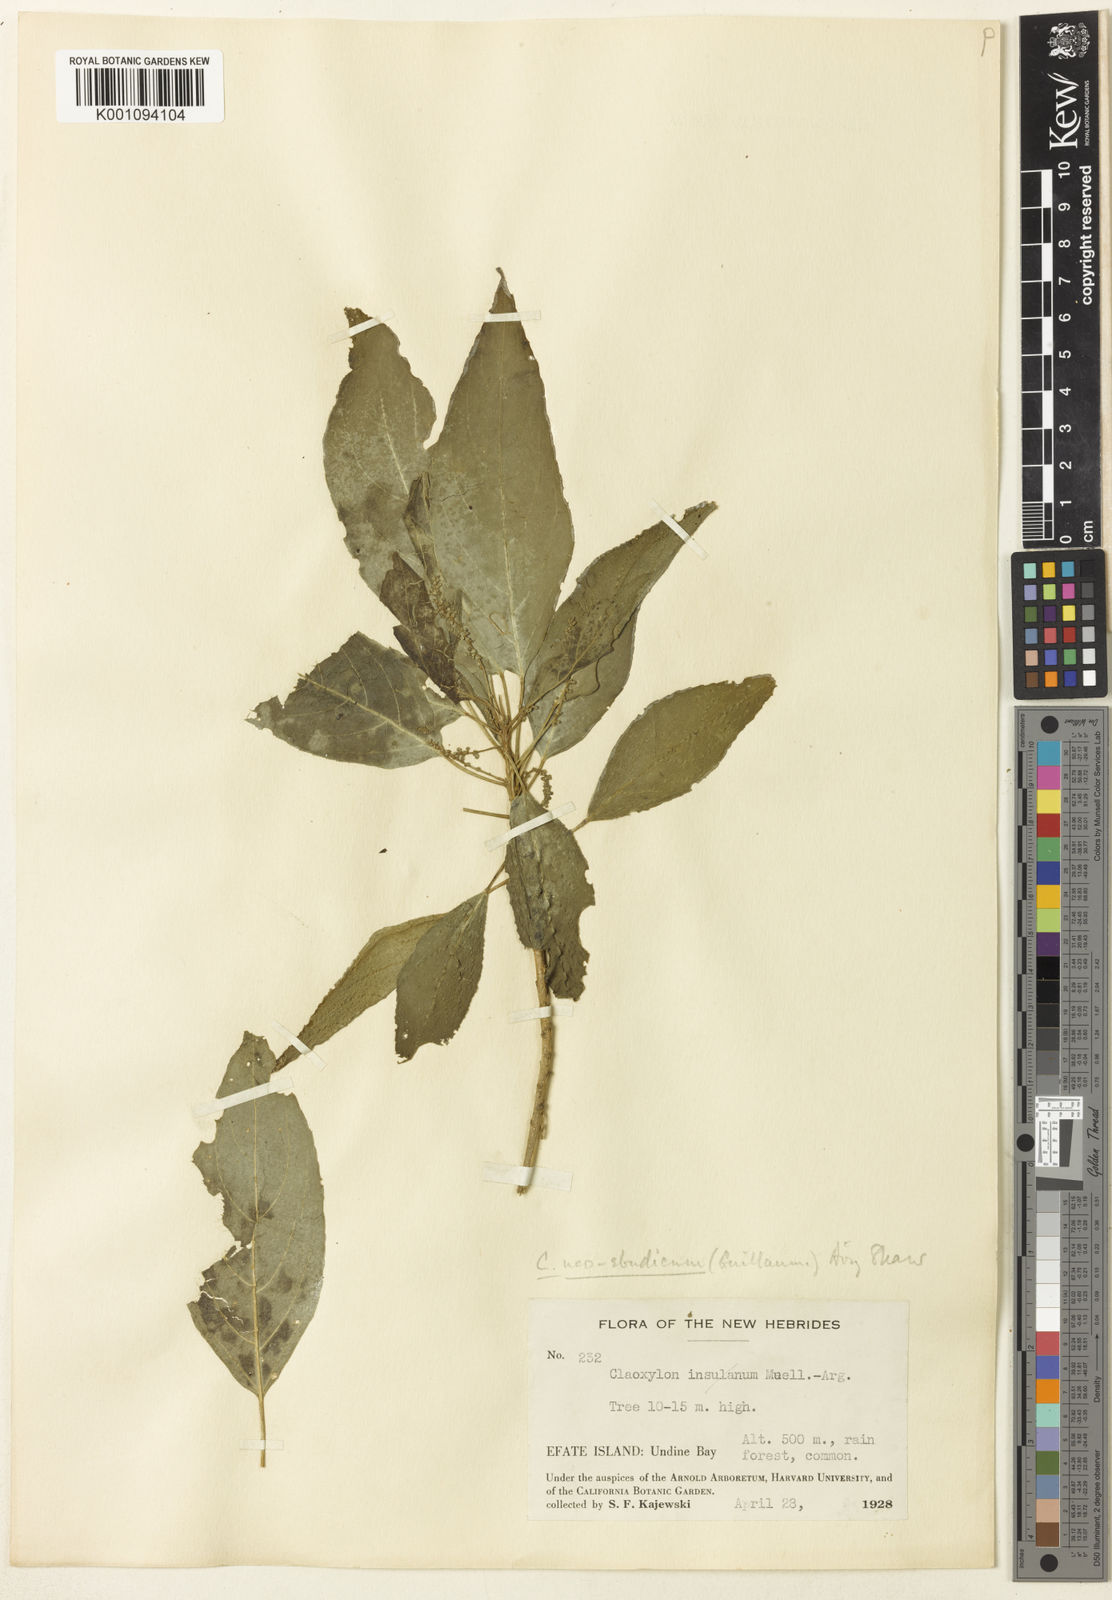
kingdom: Plantae
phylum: Tracheophyta
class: Magnoliopsida
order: Malpighiales
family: Euphorbiaceae
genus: Claoxylon
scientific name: Claoxylon neoebudicum
